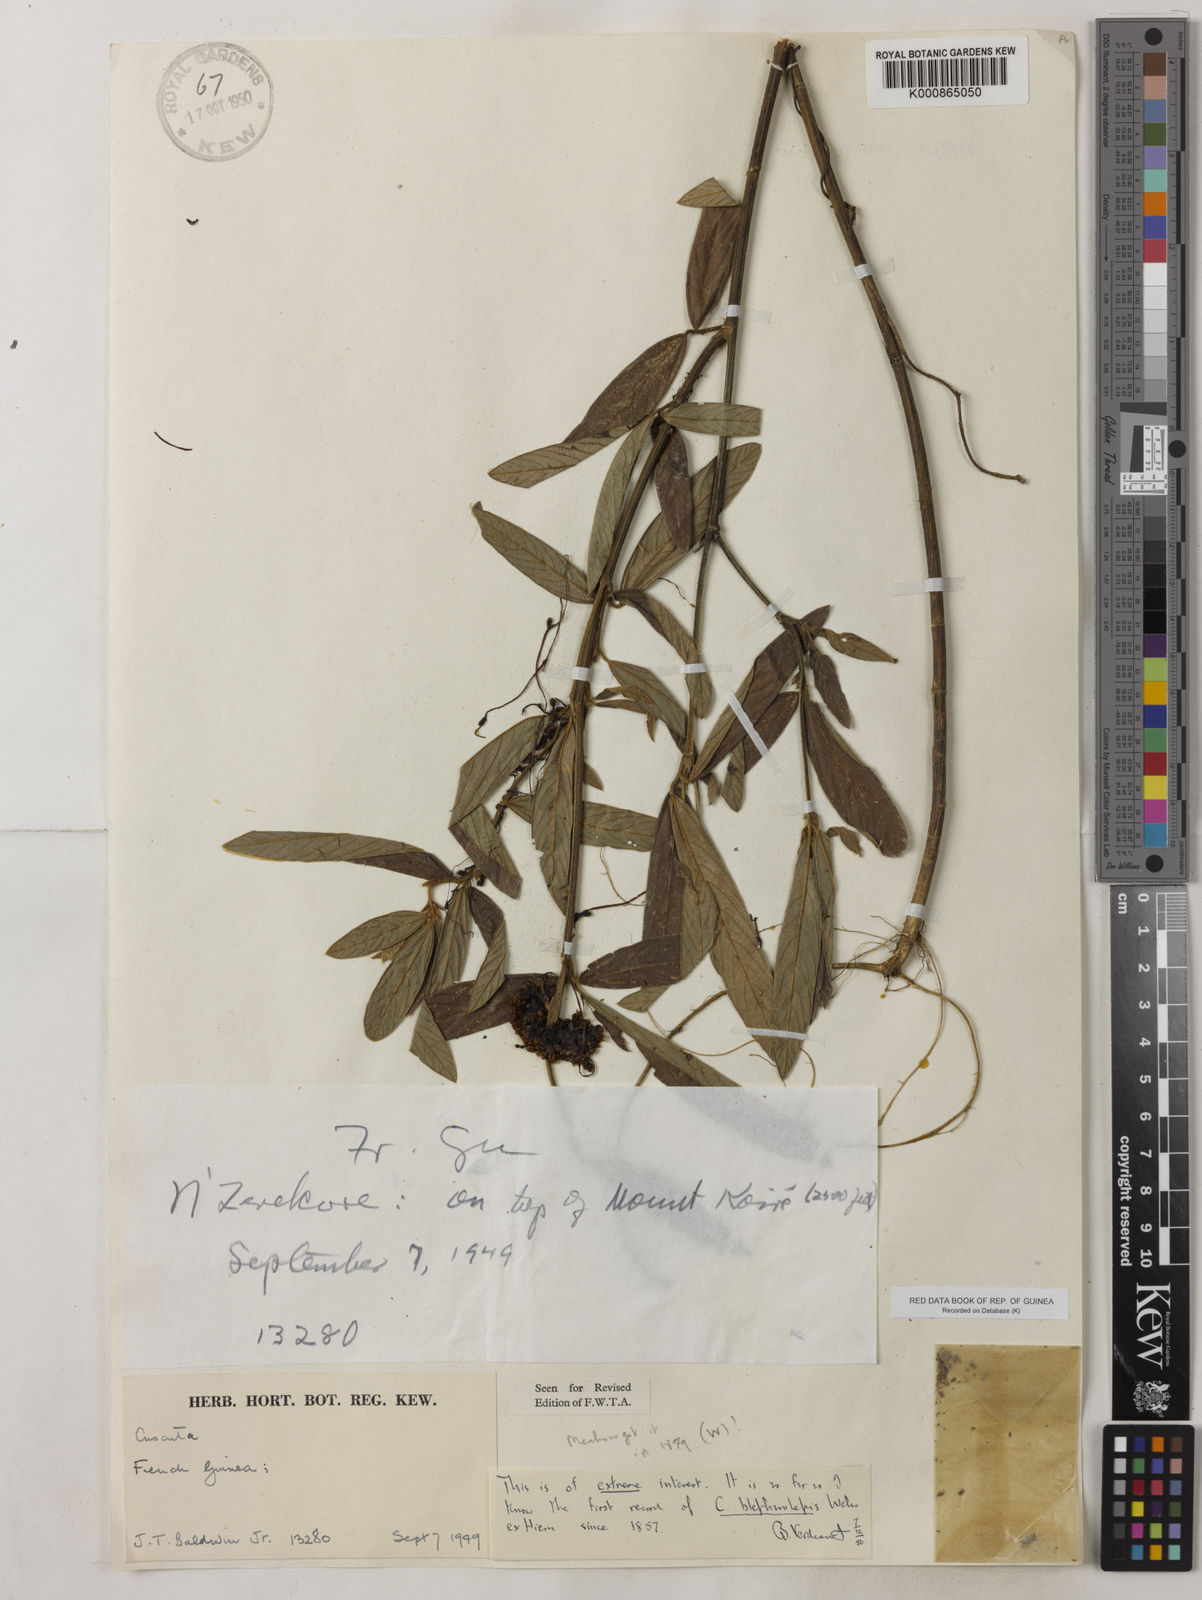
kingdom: Plantae
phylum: Tracheophyta
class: Magnoliopsida
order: Solanales
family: Convolvulaceae
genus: Cuscuta
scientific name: Cuscuta blepharolepis
